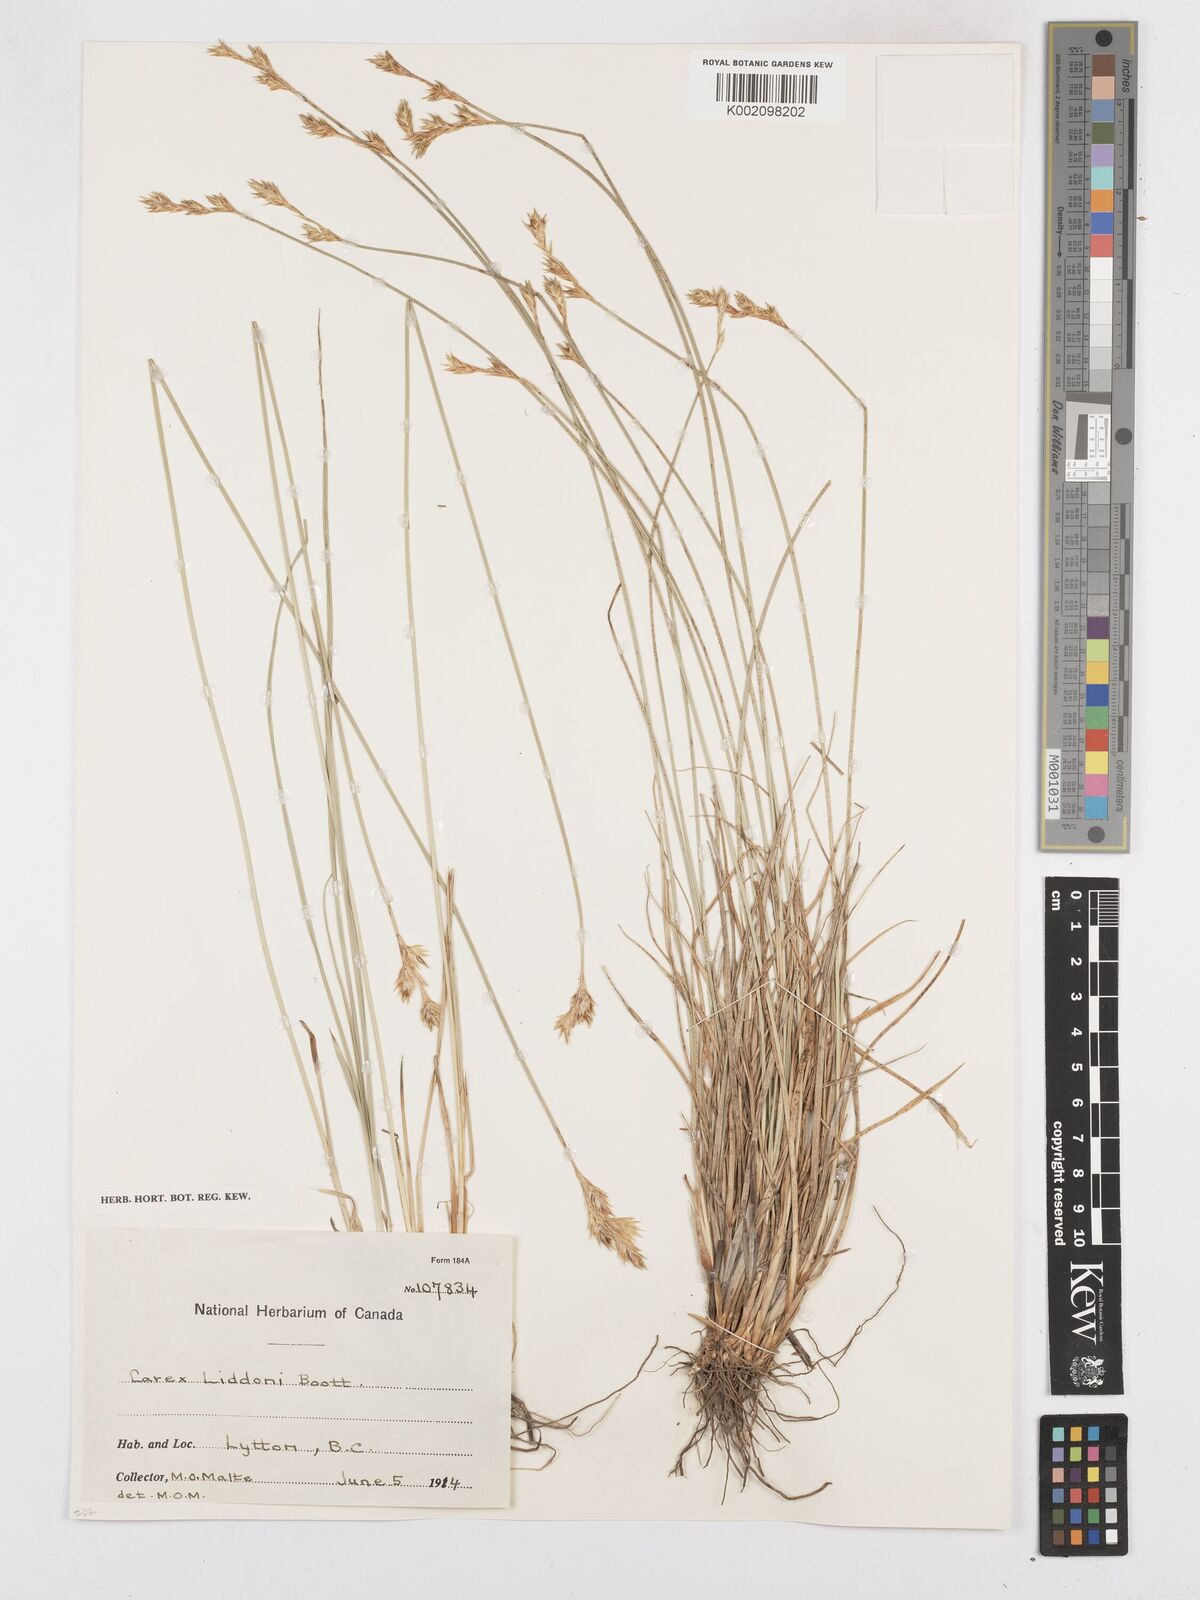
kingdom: Plantae
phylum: Tracheophyta
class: Liliopsida
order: Poales
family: Cyperaceae
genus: Carex
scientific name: Carex foenea
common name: Bronze sedge
